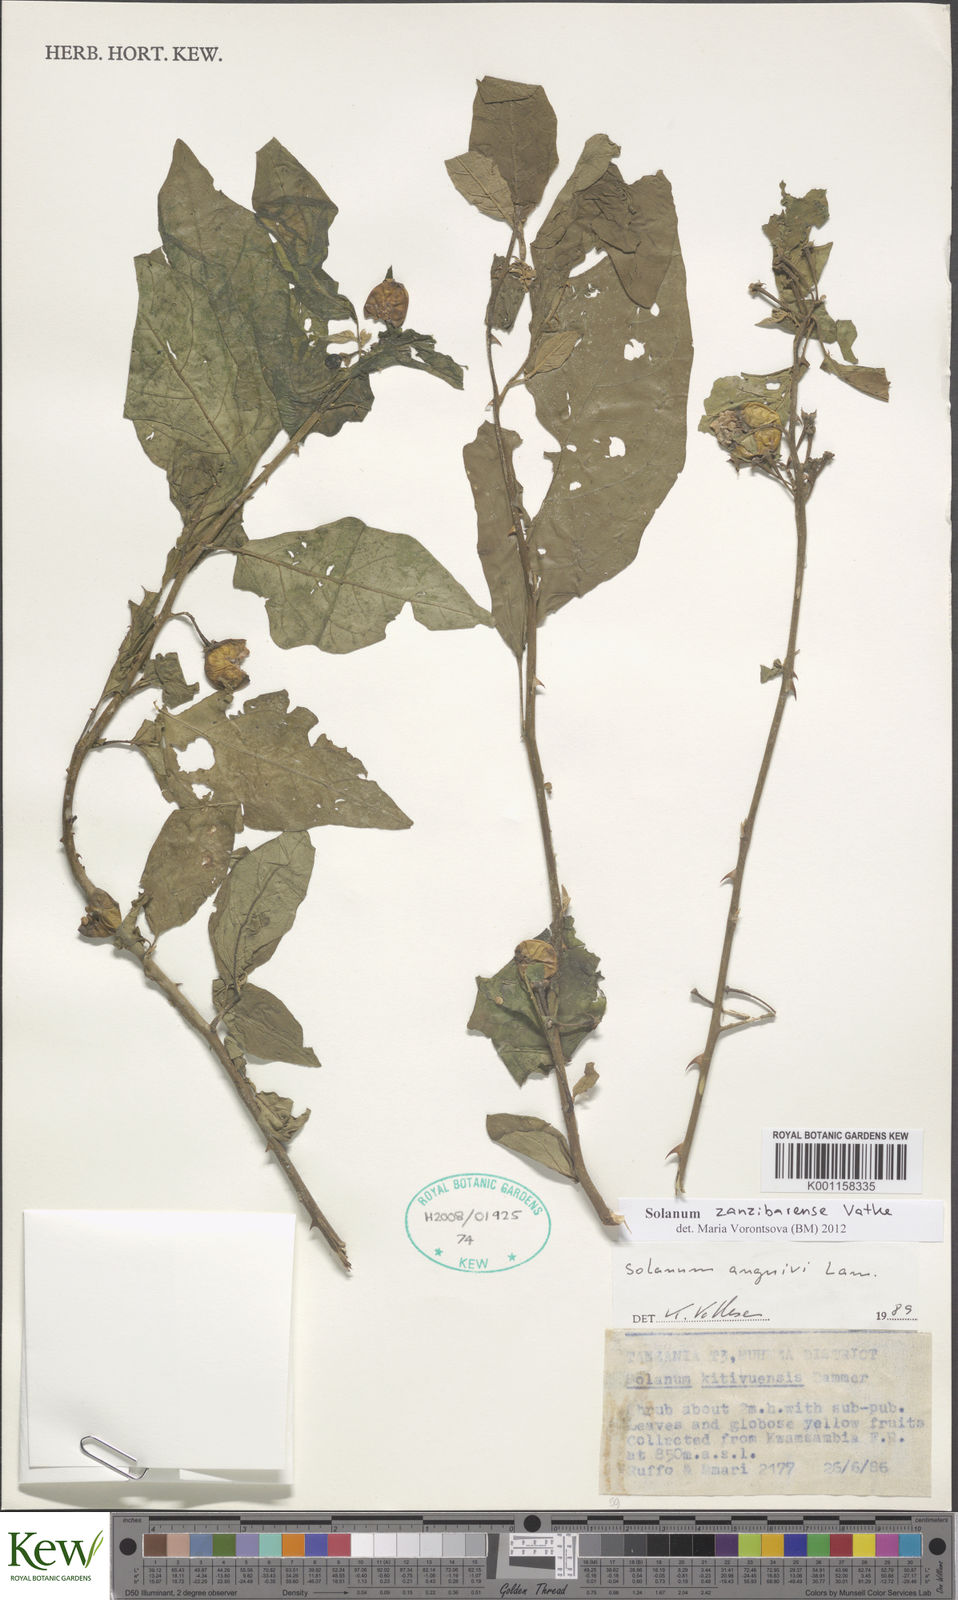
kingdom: Plantae
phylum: Tracheophyta
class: Magnoliopsida
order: Solanales
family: Solanaceae
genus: Solanum
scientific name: Solanum zanzibarense
